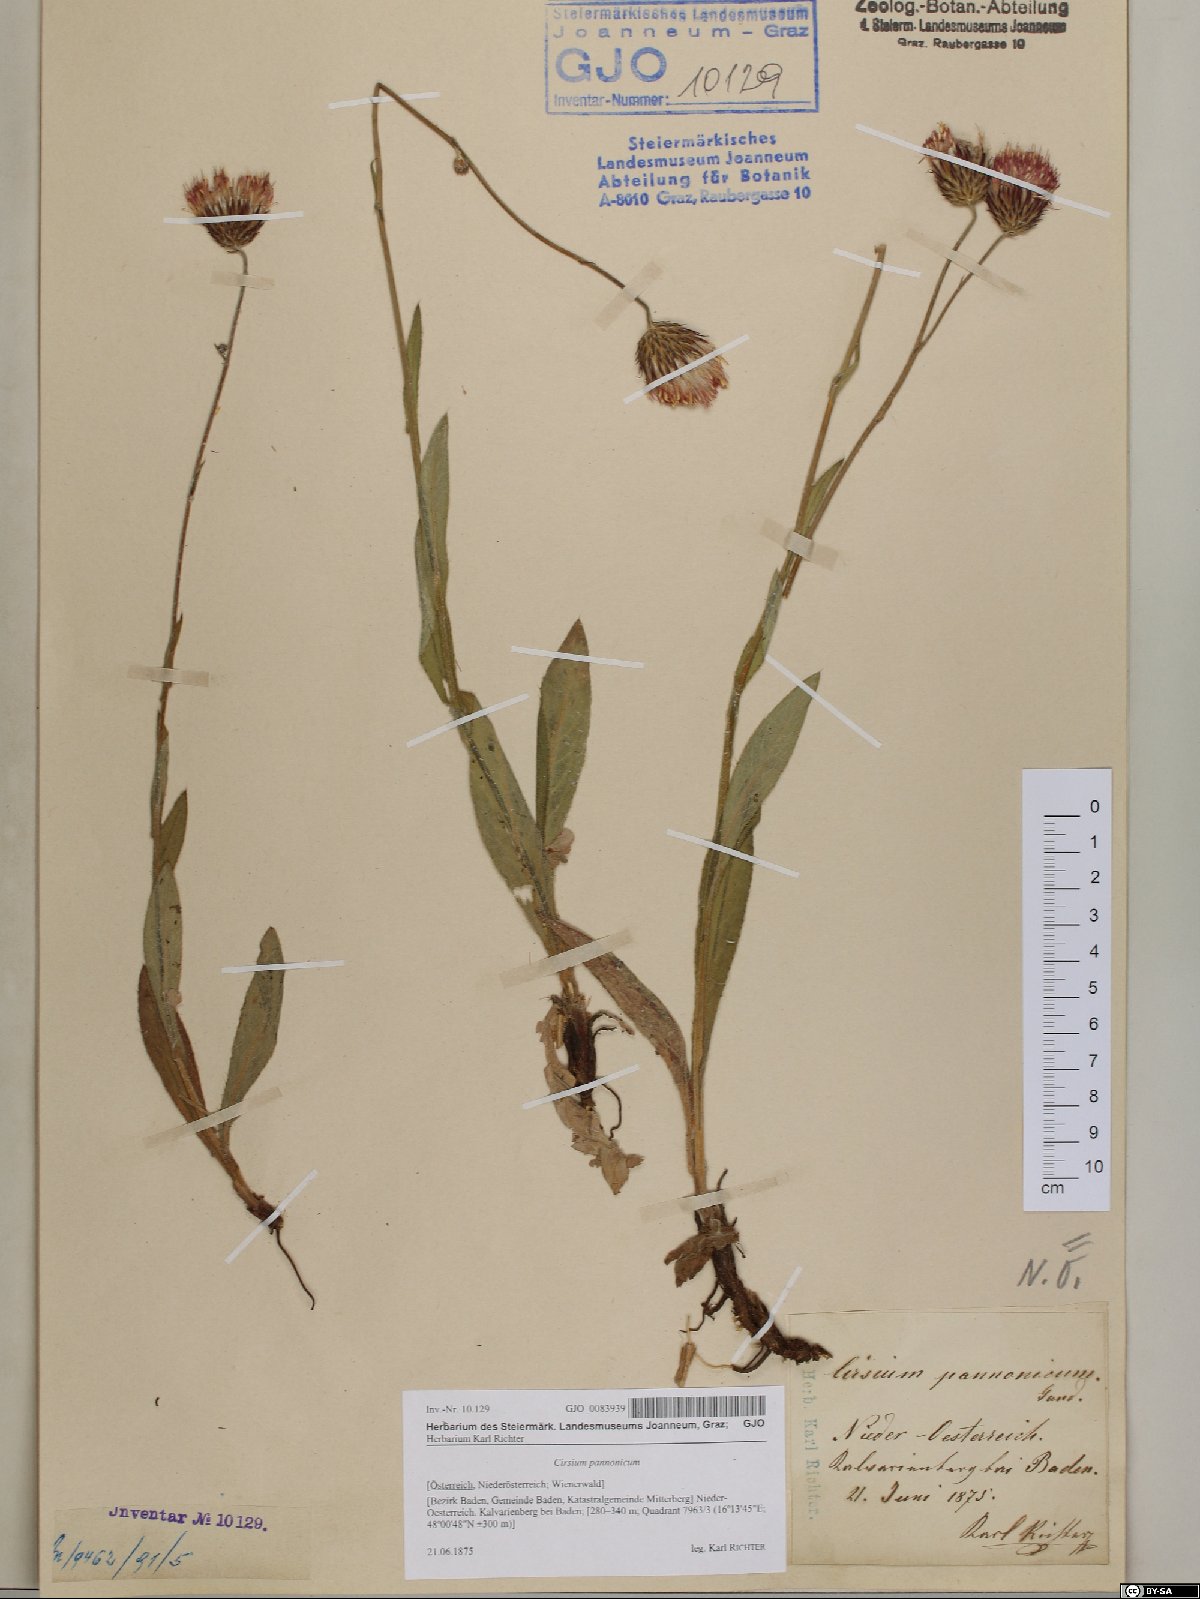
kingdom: Plantae
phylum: Tracheophyta
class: Magnoliopsida
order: Asterales
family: Asteraceae
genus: Cirsium
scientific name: Cirsium pannonicum
